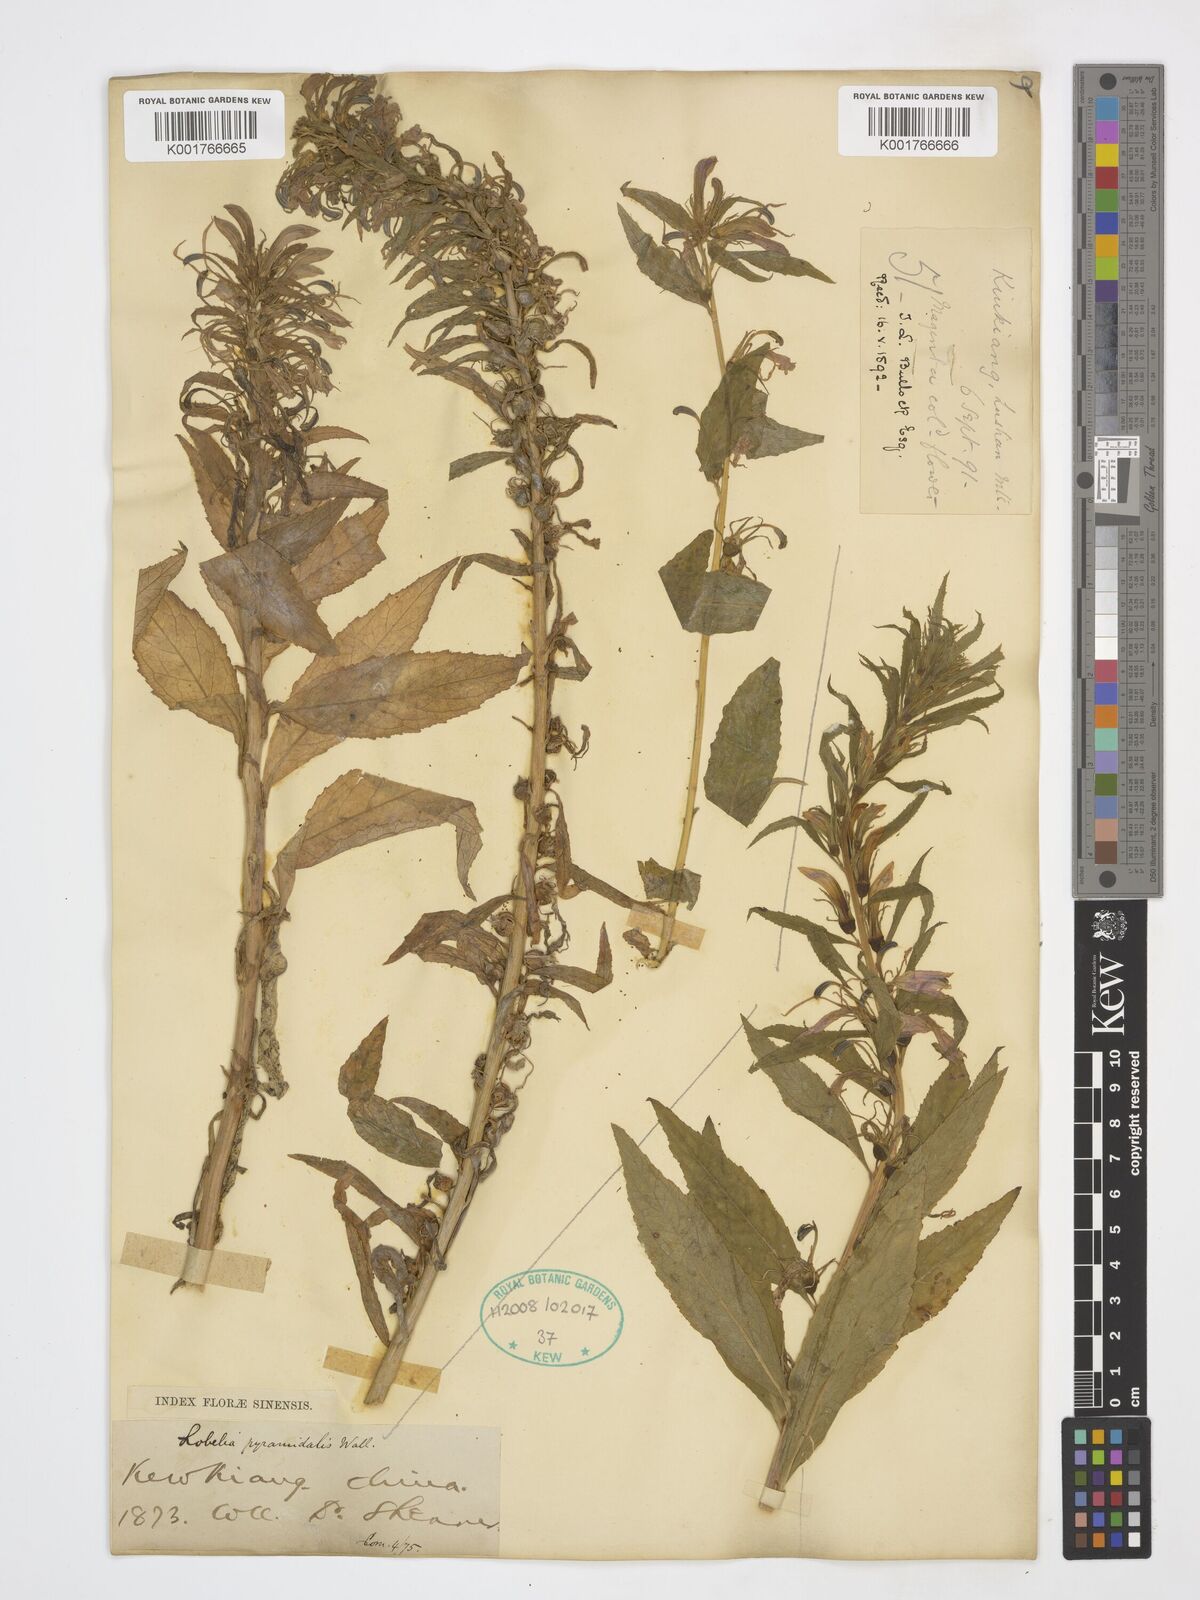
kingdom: Plantae
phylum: Tracheophyta
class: Magnoliopsida
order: Asterales
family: Campanulaceae
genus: Lobelia
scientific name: Lobelia pyramidalis
